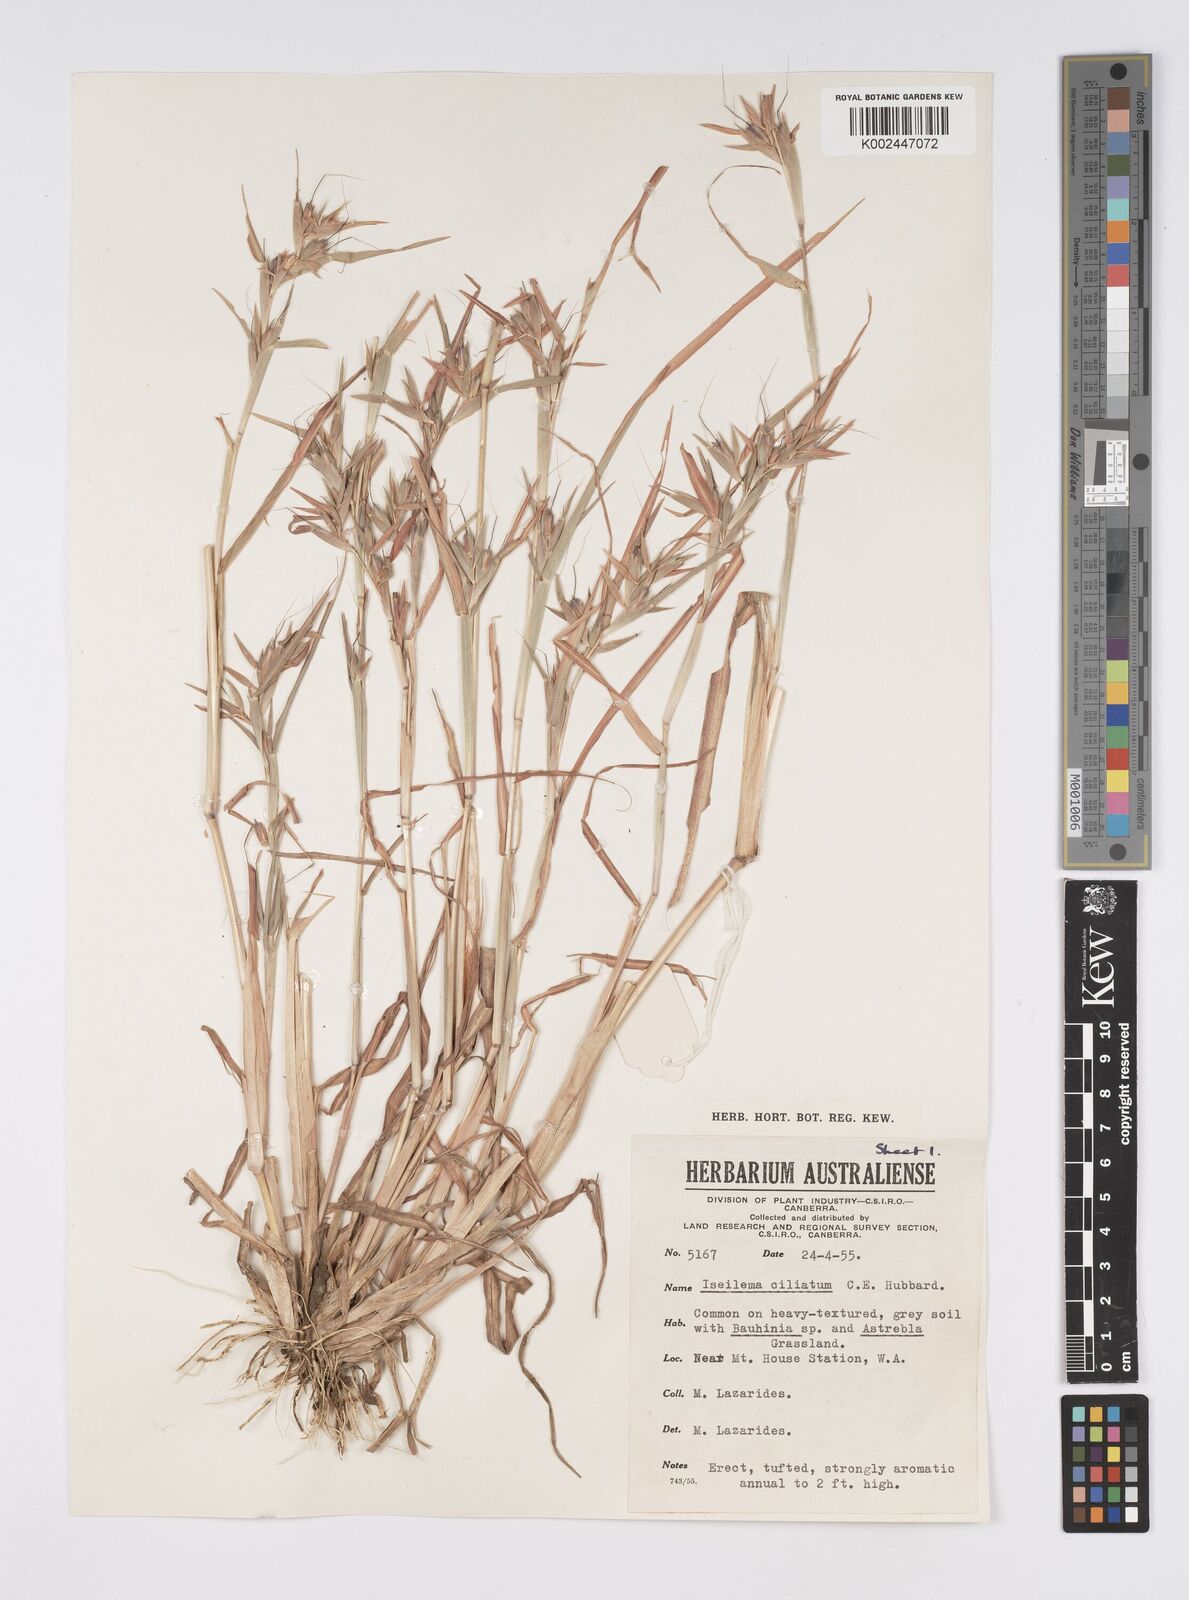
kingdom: Plantae
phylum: Tracheophyta
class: Liliopsida
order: Poales
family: Poaceae
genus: Iseilema
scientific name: Iseilema ciliatum
